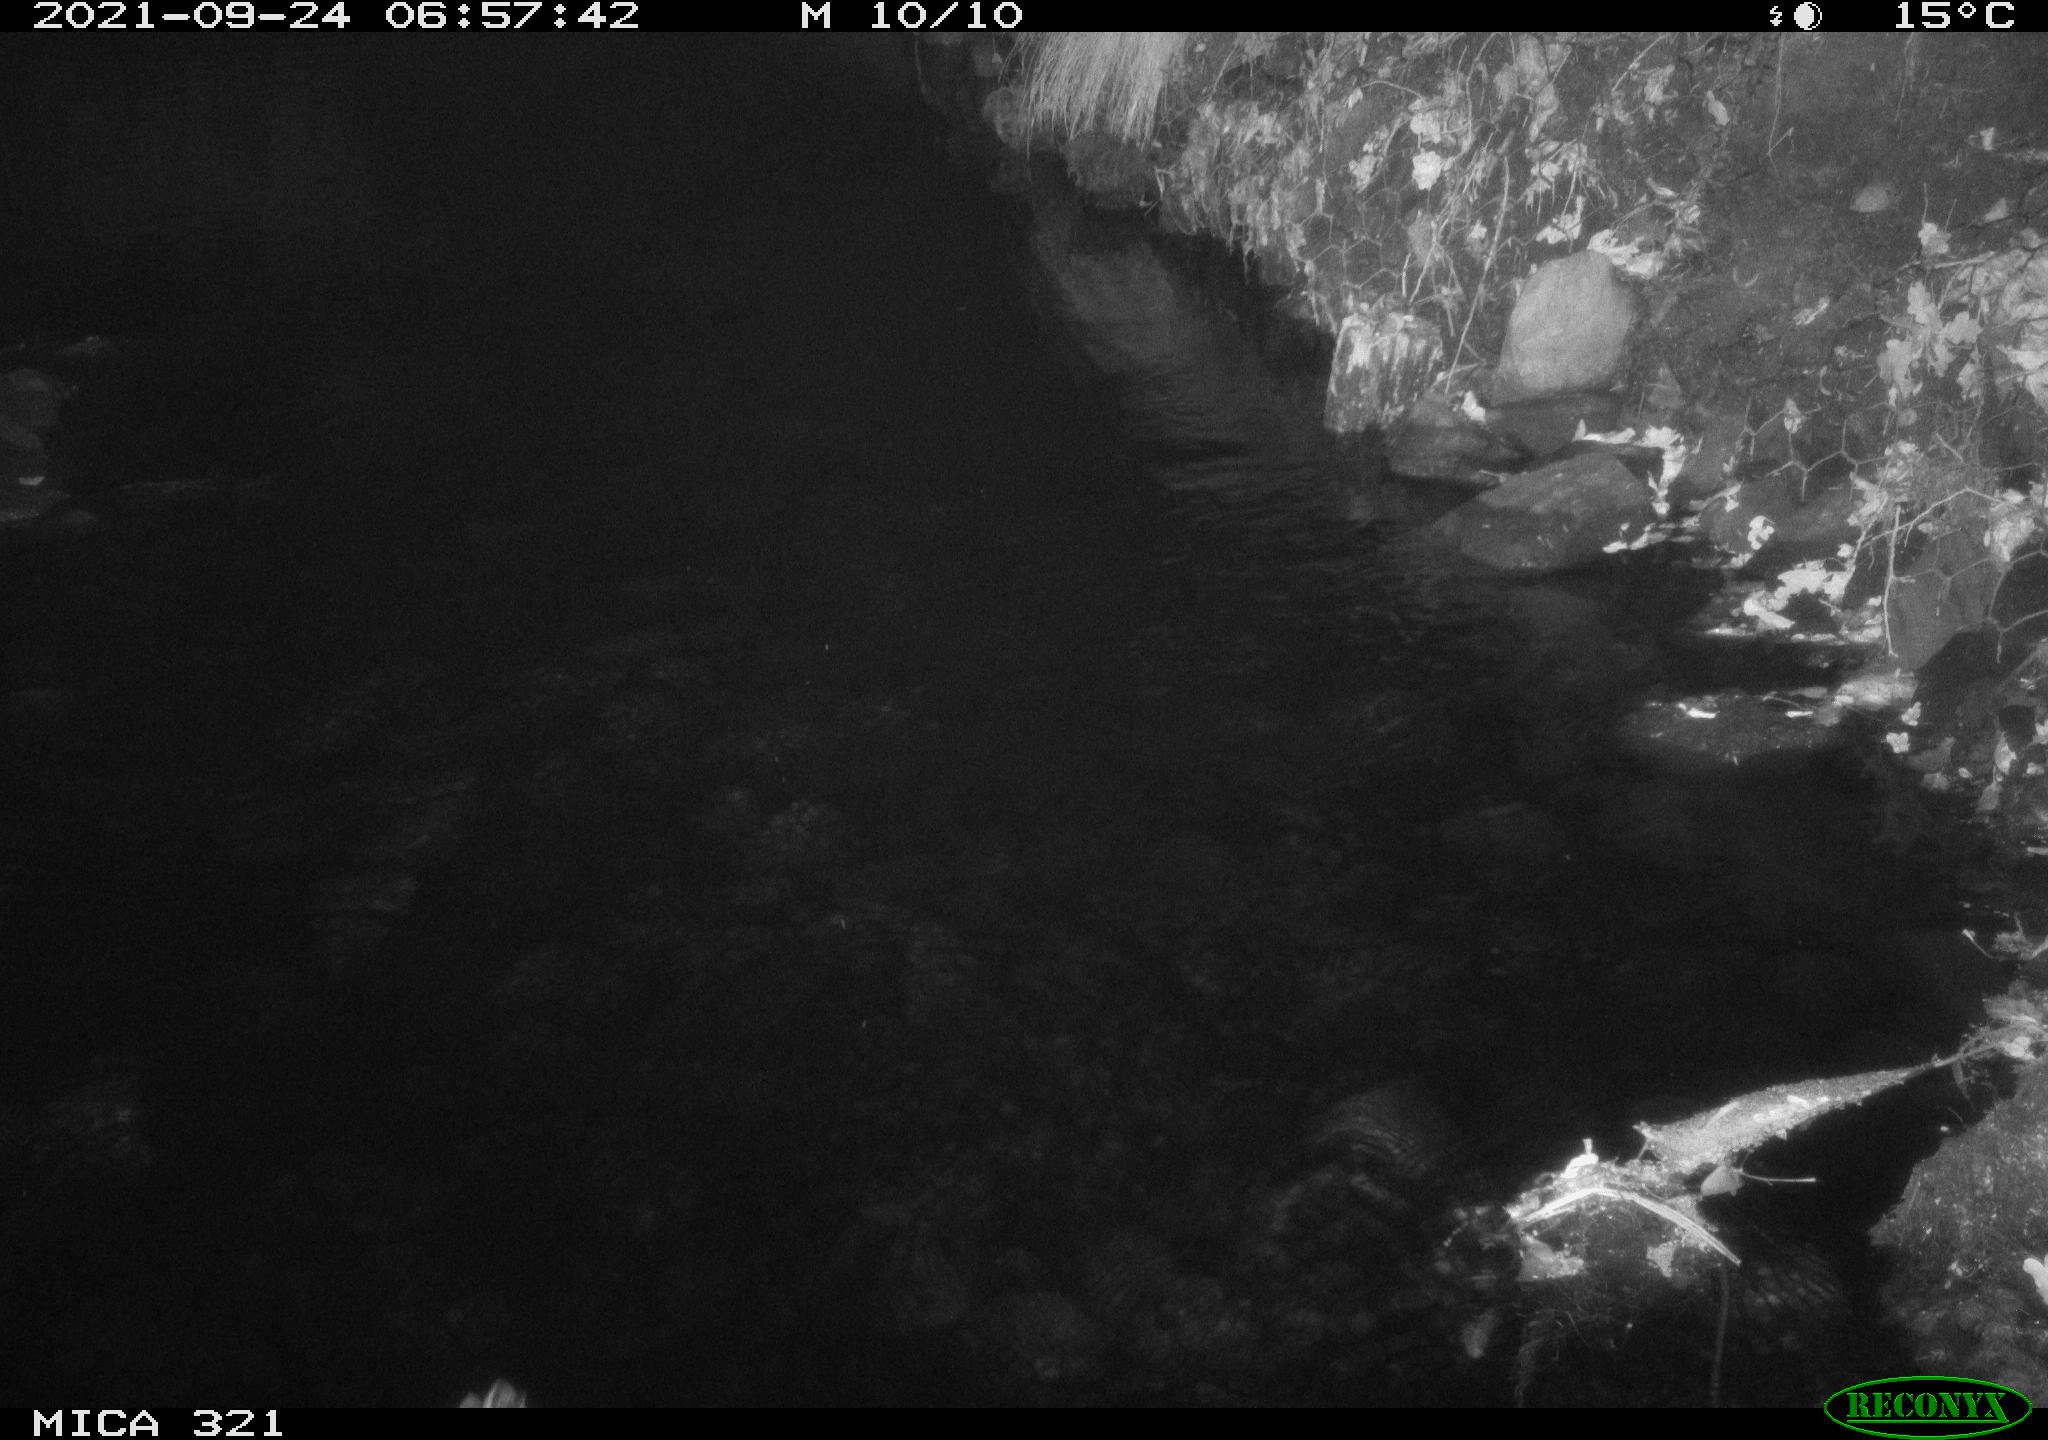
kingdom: Animalia
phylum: Chordata
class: Aves
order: Anseriformes
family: Anatidae
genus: Anas
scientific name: Anas platyrhynchos
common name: Mallard
